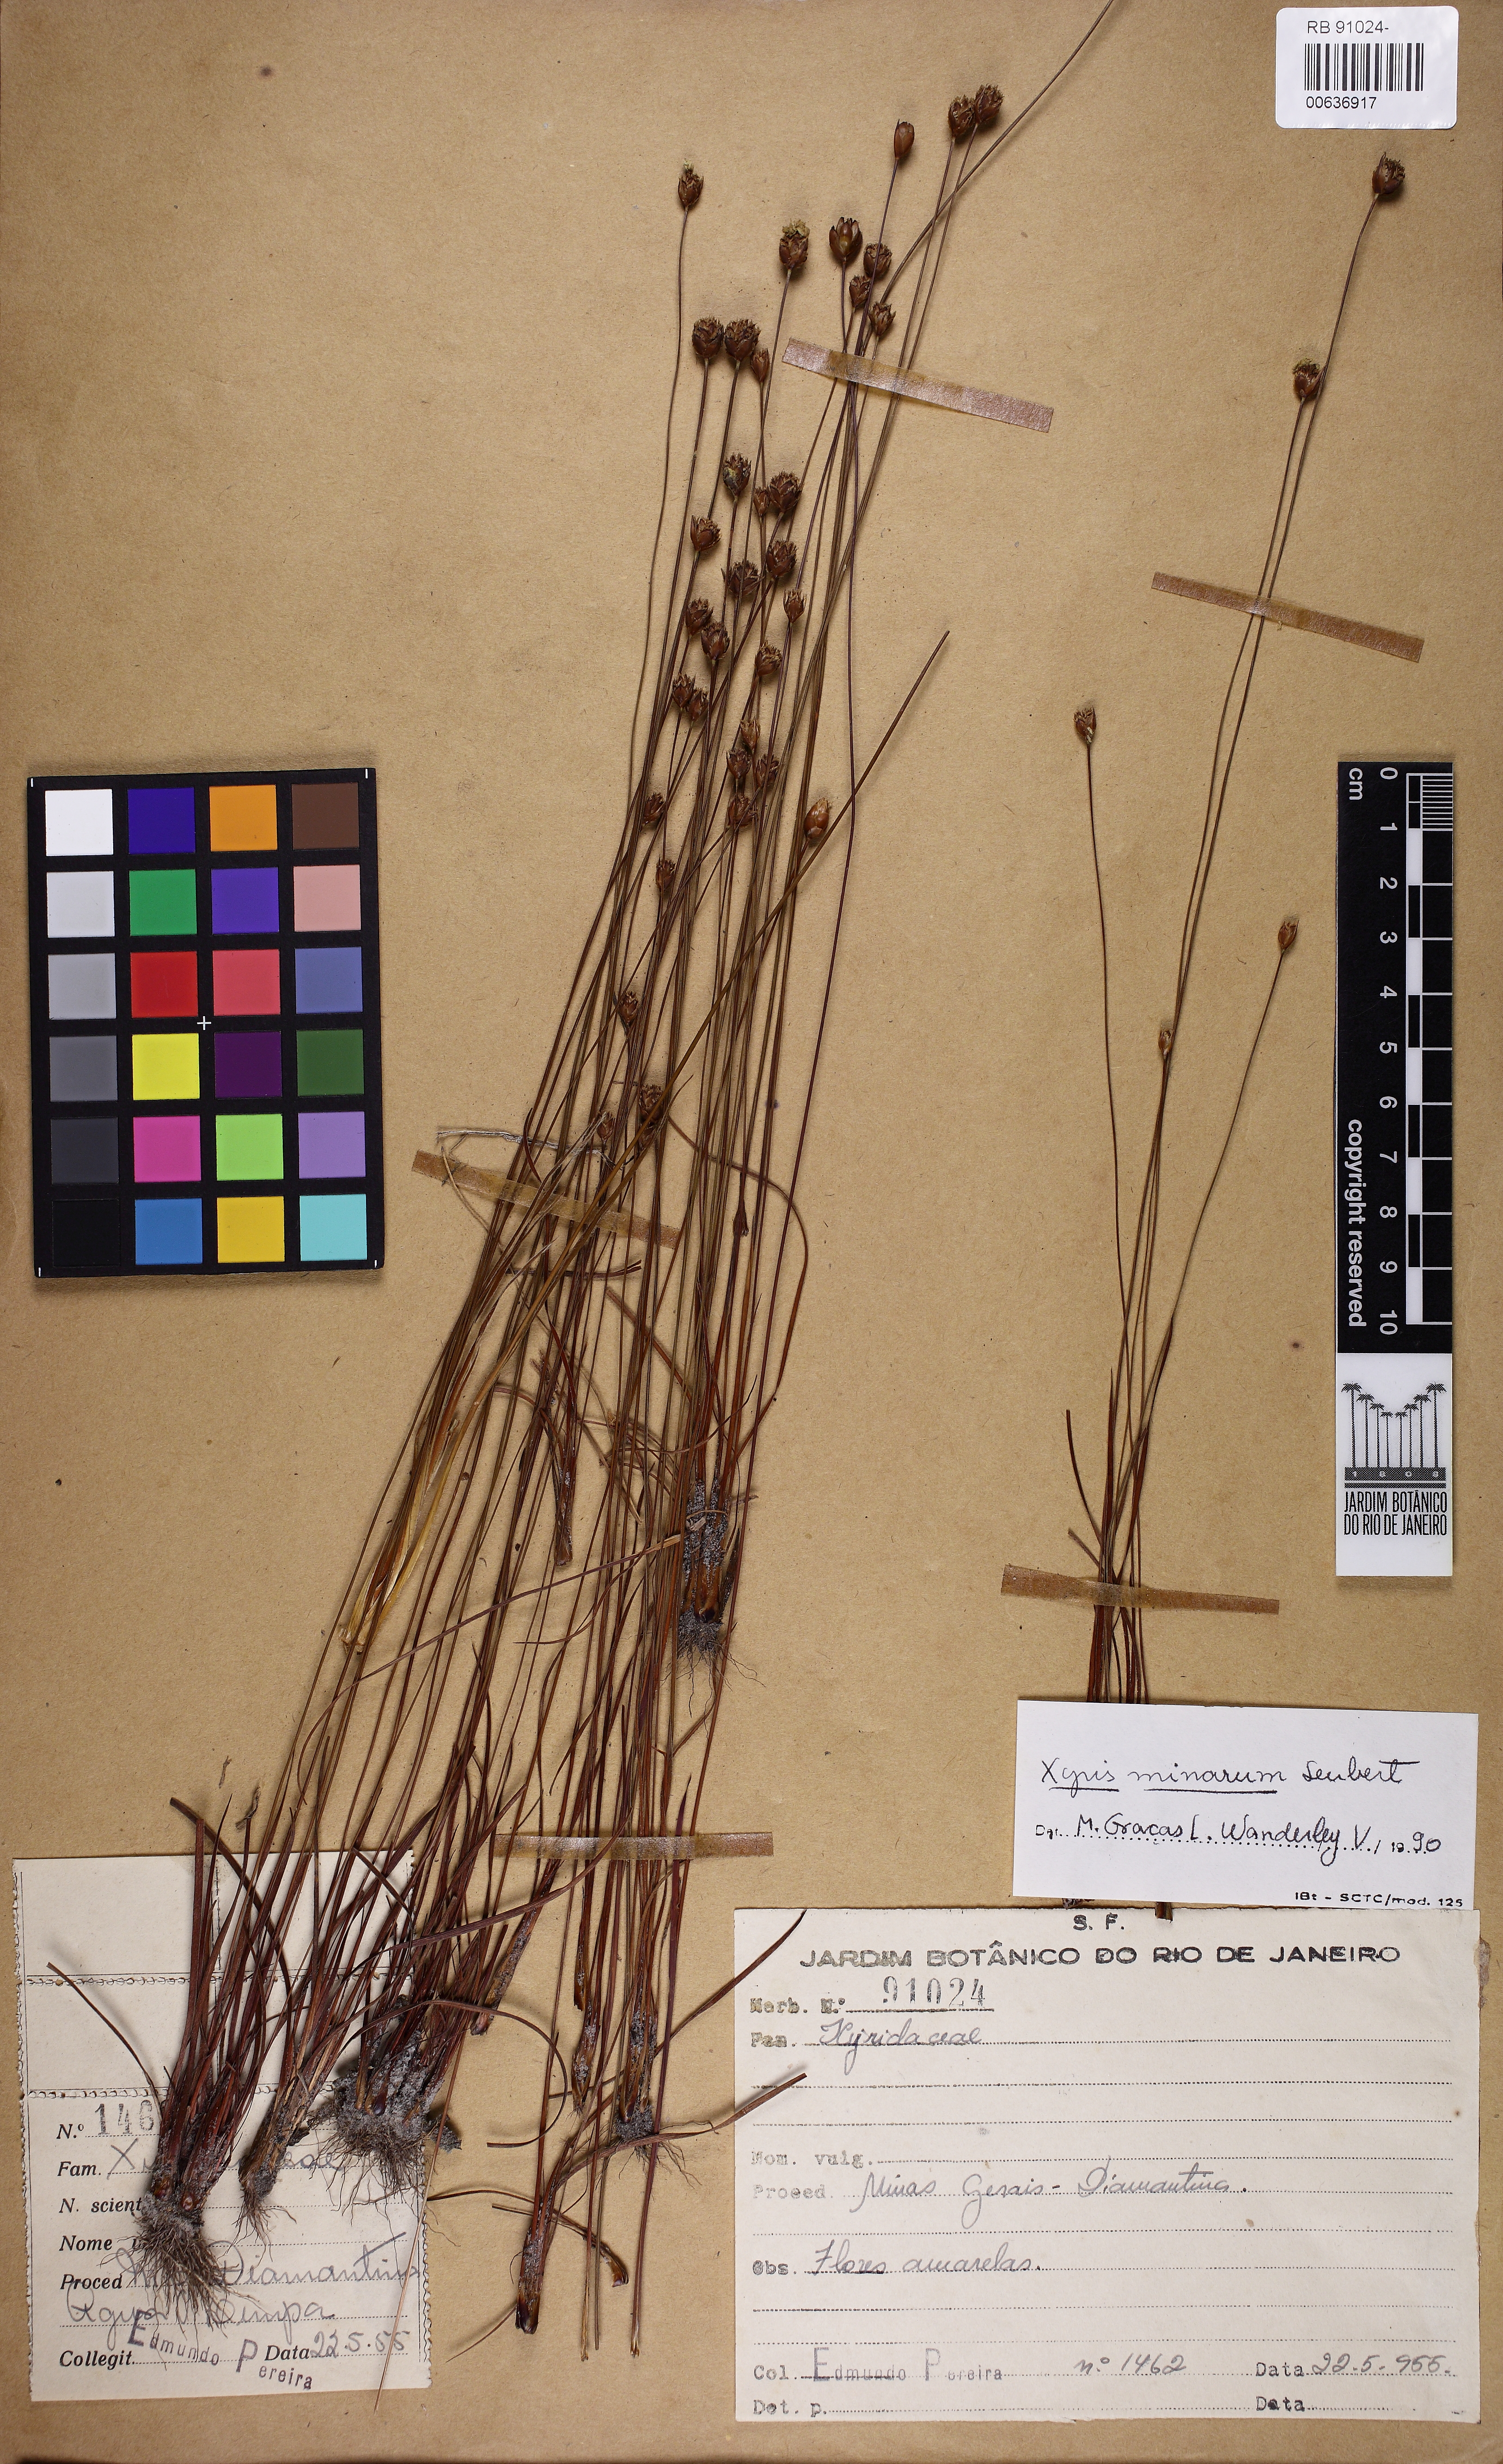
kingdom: Plantae
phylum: Tracheophyta
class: Liliopsida
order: Poales
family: Xyridaceae
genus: Xyris
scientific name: Xyris minarum
